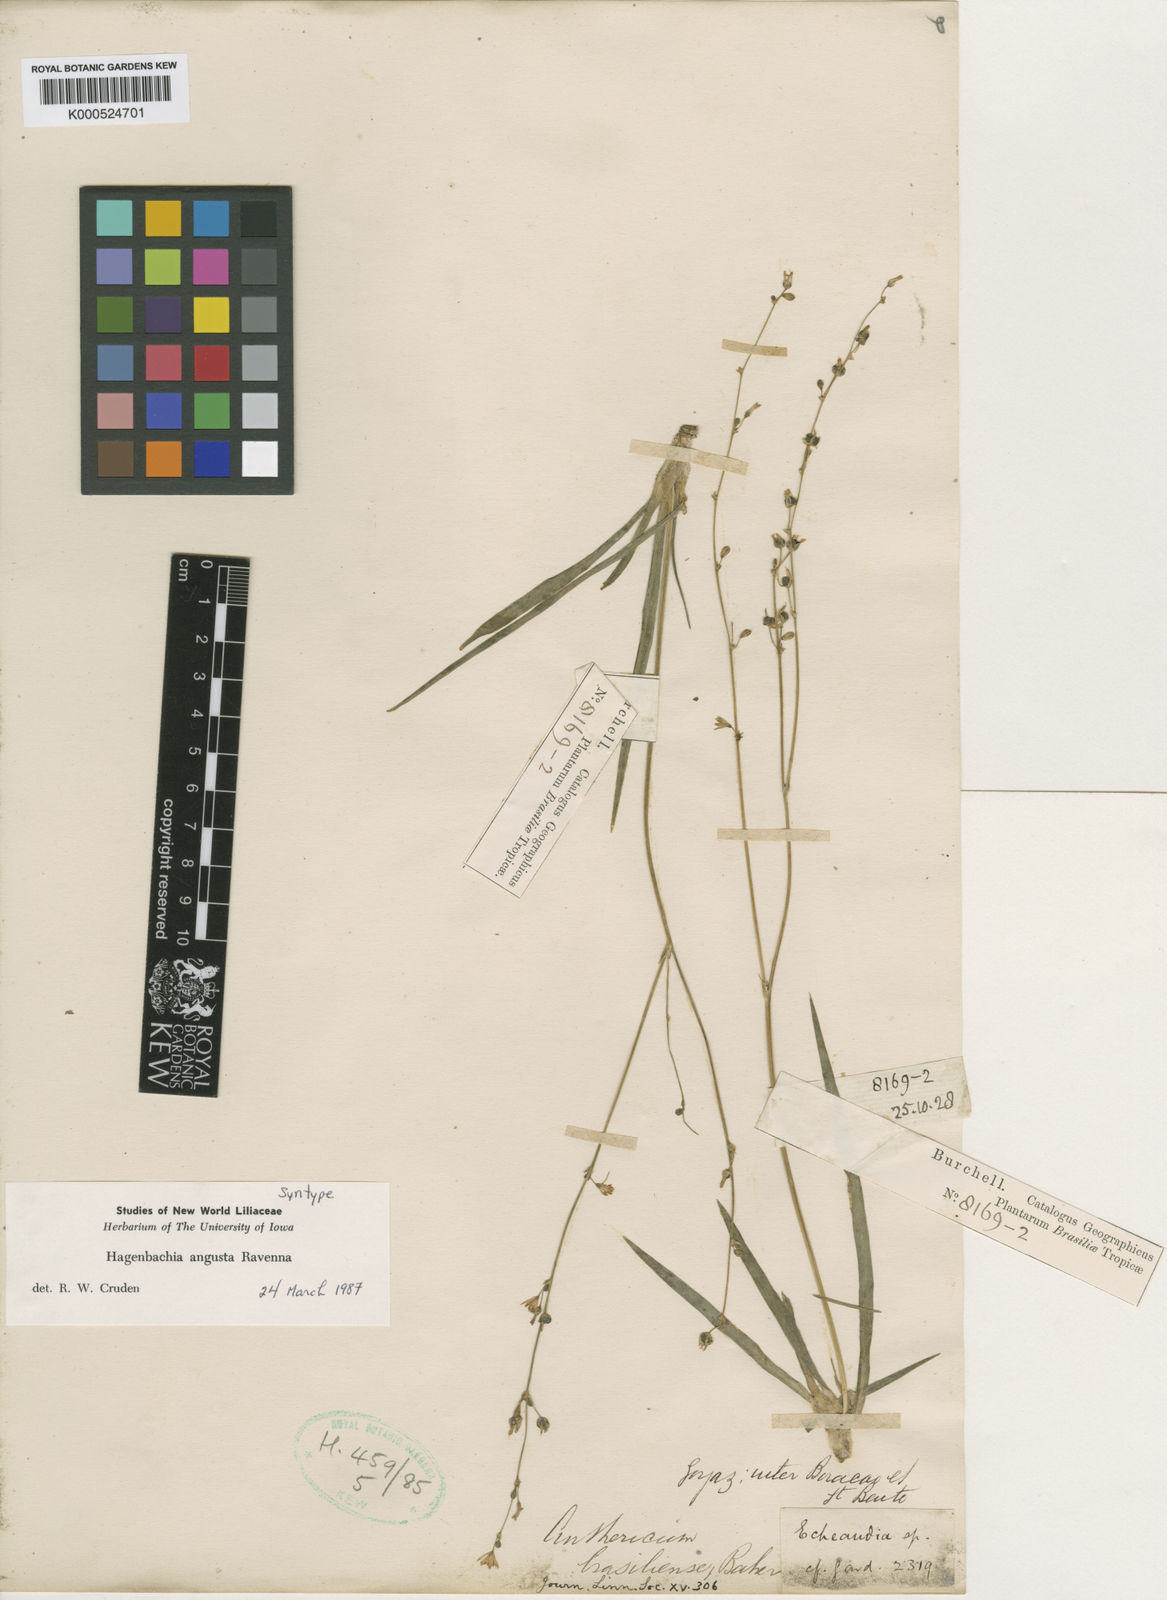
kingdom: Plantae
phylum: Tracheophyta
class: Liliopsida
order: Asparagales
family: Asparagaceae
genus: Hagenbachia
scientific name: Hagenbachia matogrossensis
